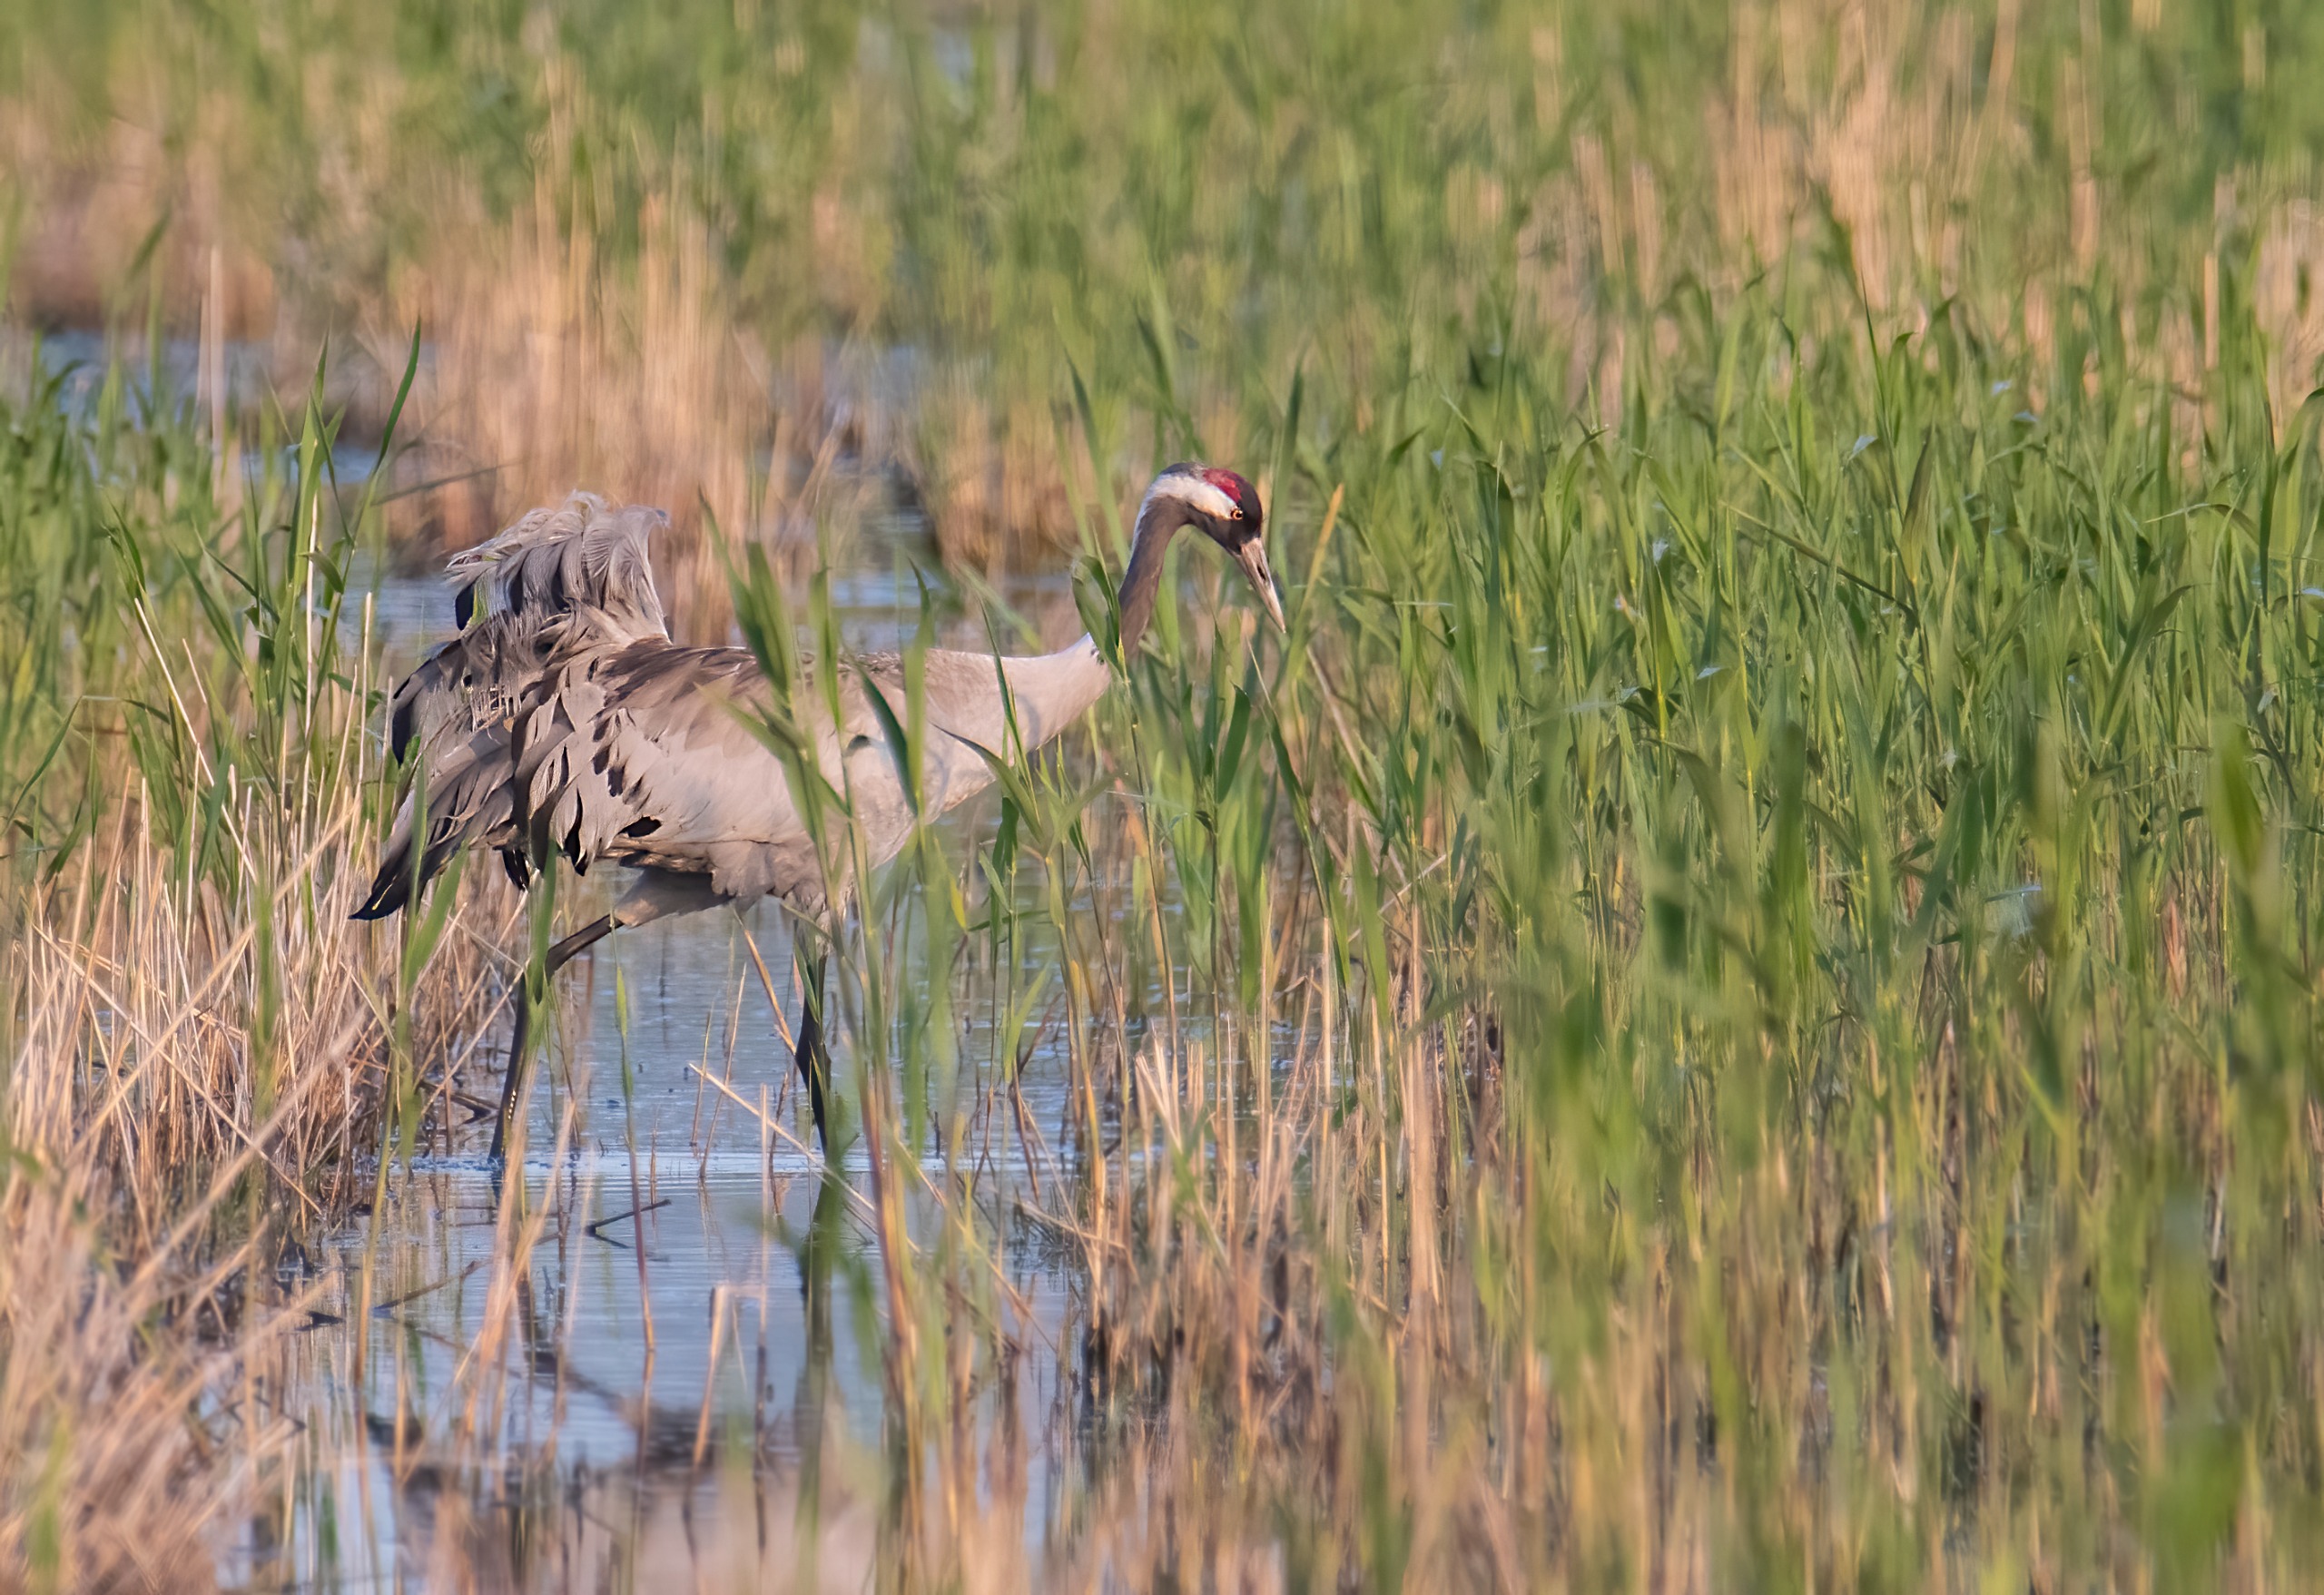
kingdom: Animalia
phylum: Chordata
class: Aves
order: Gruiformes
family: Gruidae
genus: Grus
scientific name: Grus grus
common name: Trane
